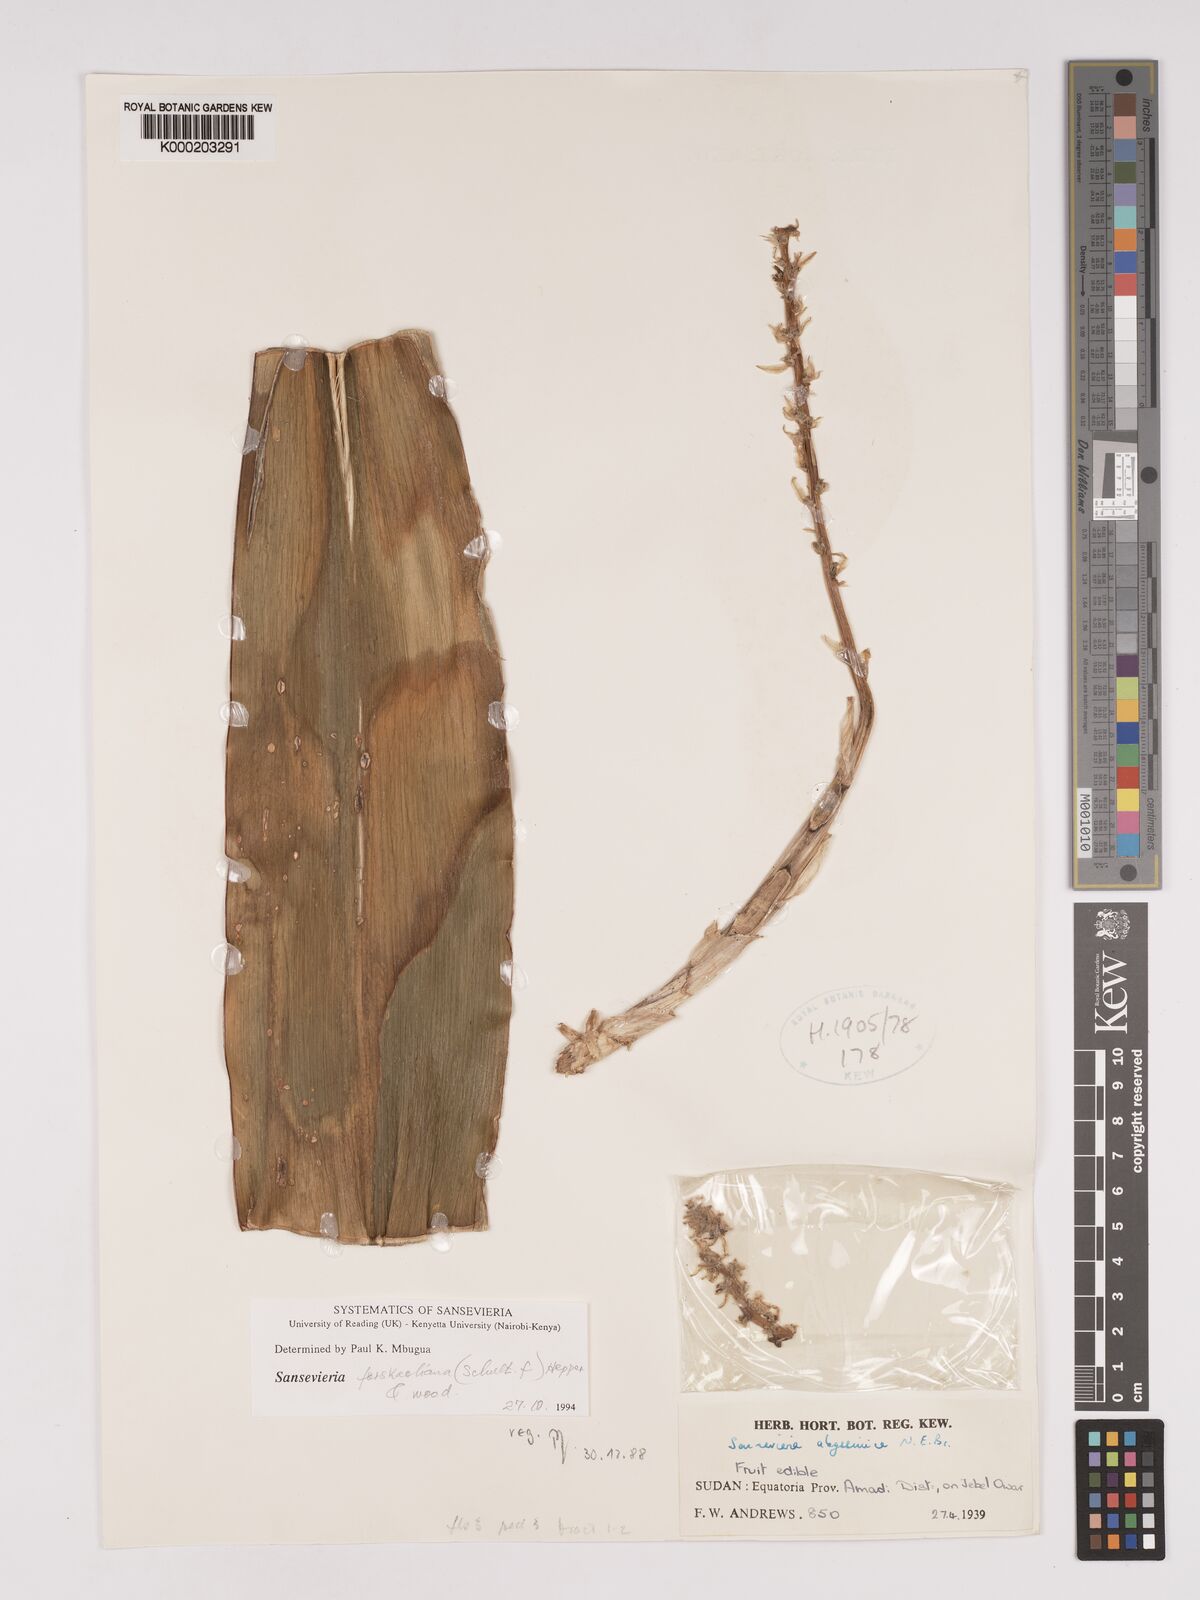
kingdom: Plantae
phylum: Tracheophyta
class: Liliopsida
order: Asparagales
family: Asparagaceae
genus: Dracaena
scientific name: Dracaena forskaliana
